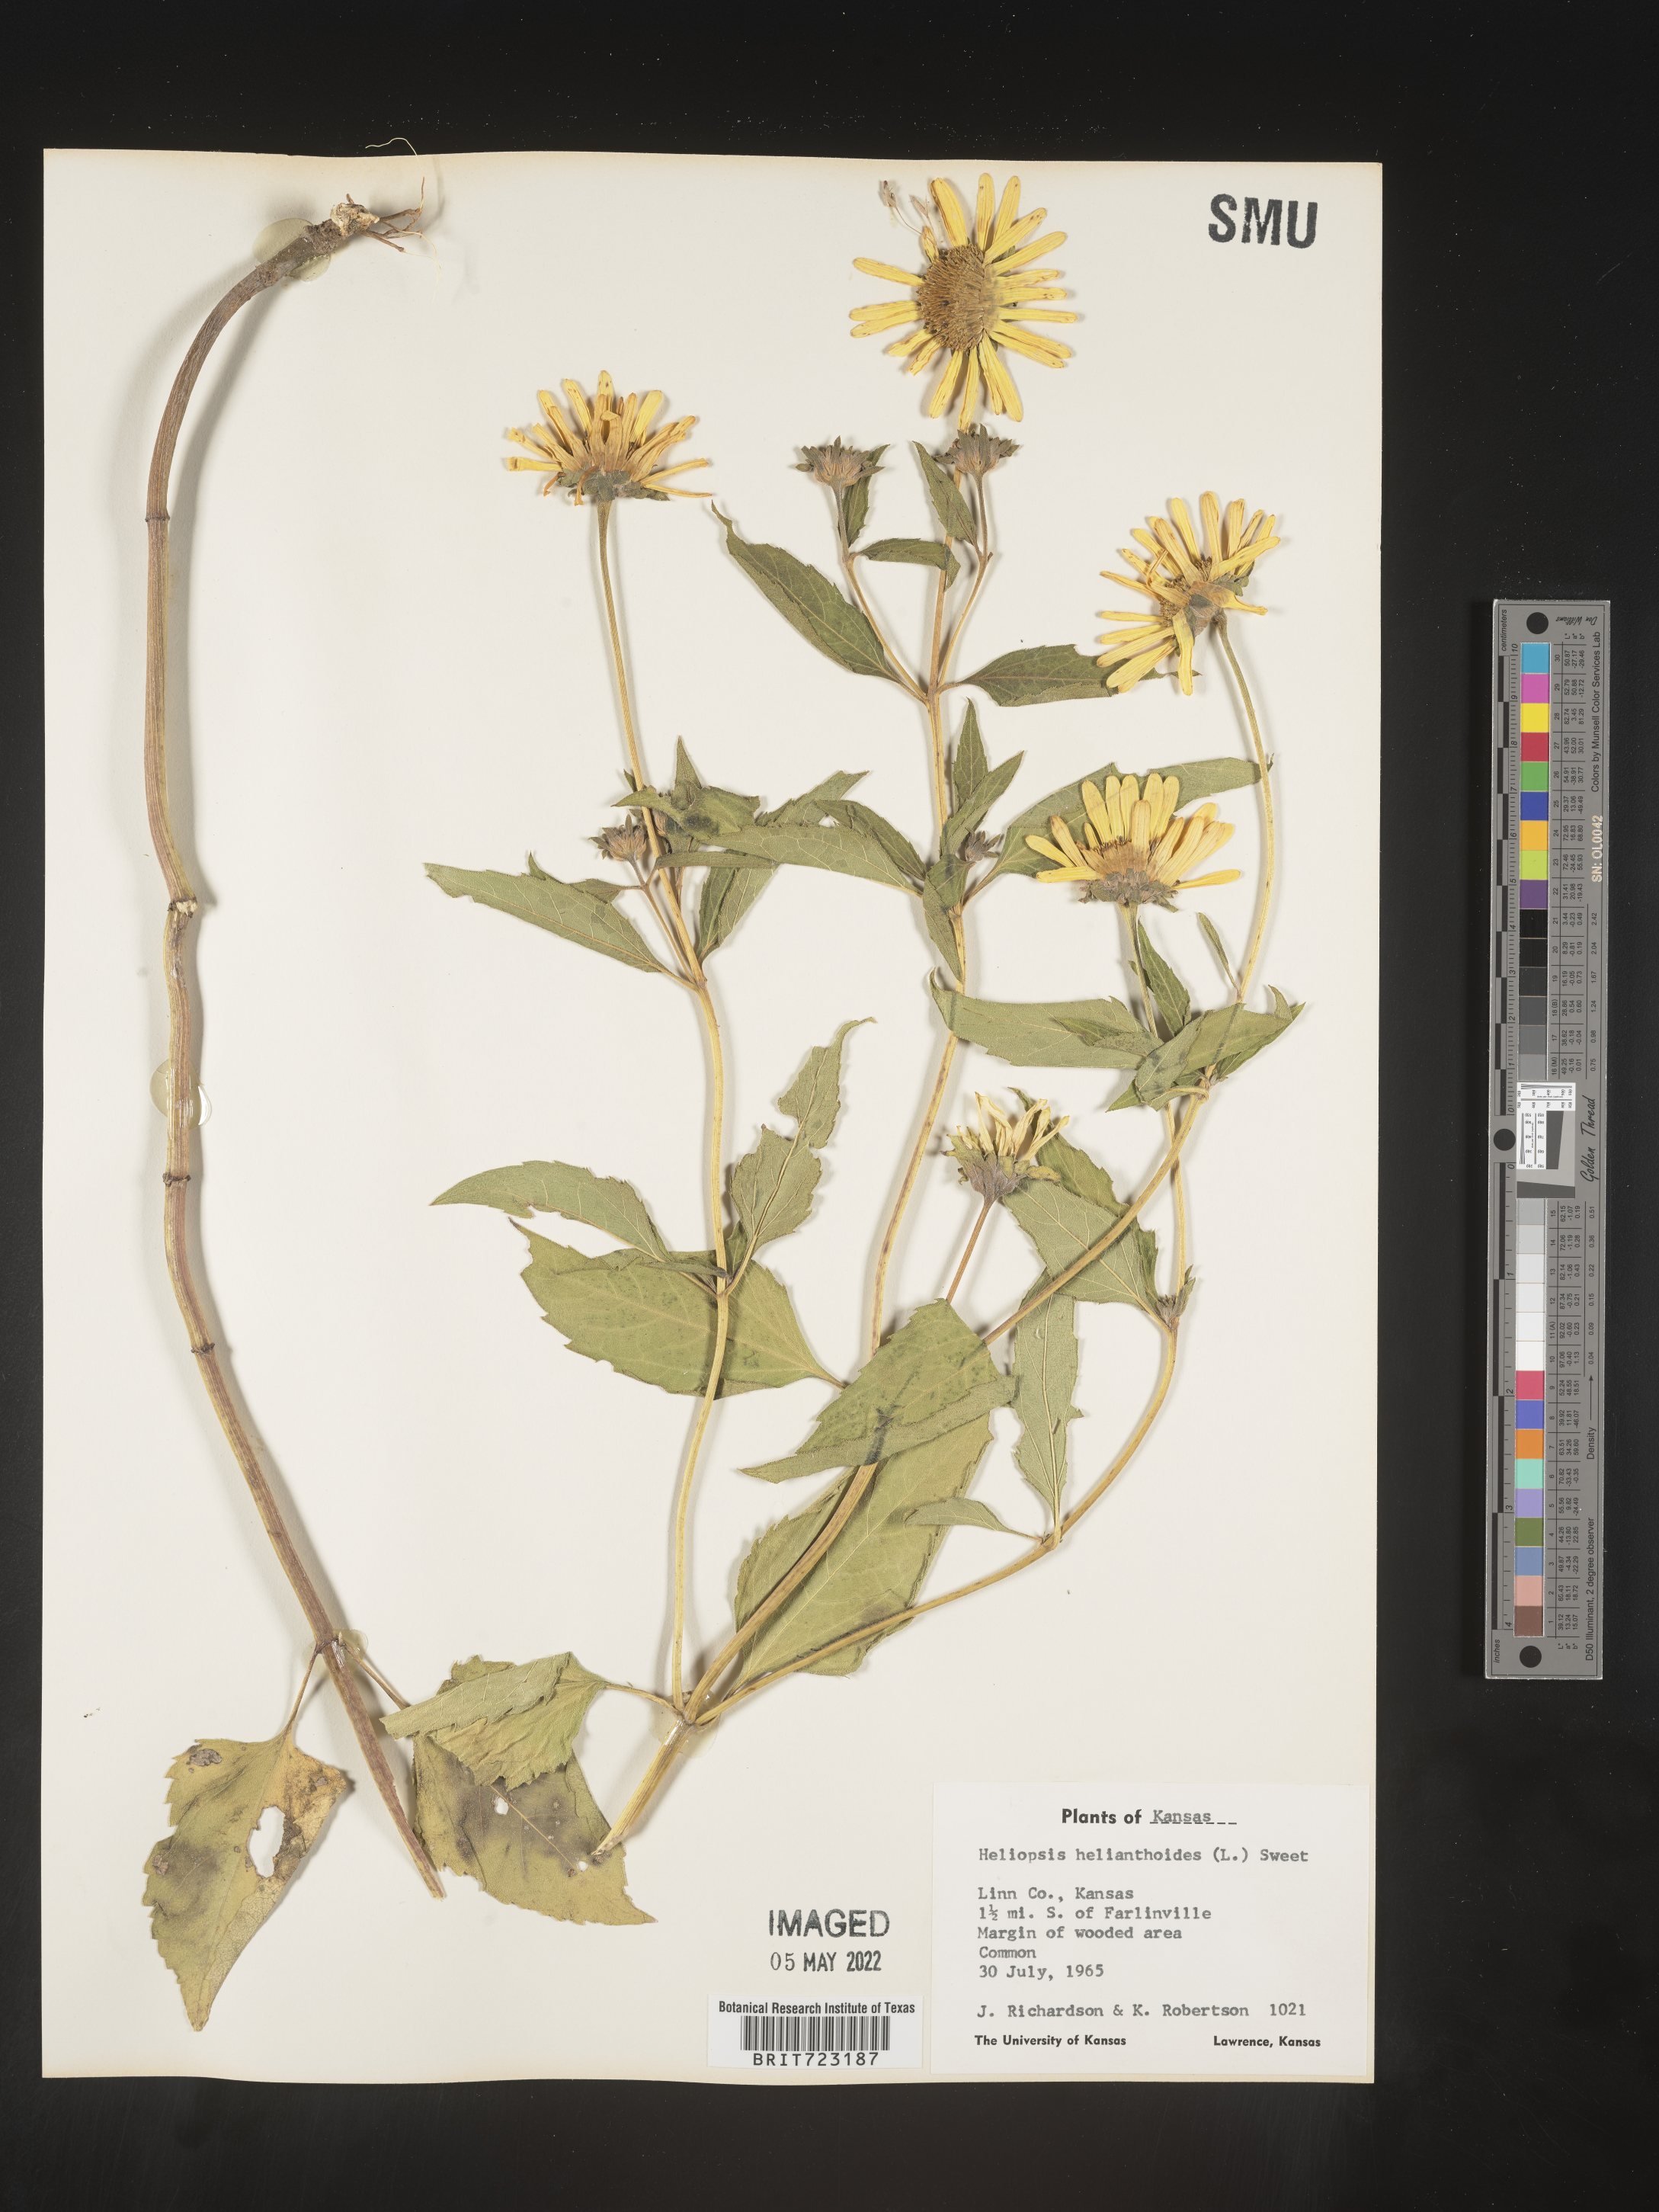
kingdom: Plantae
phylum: Tracheophyta
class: Magnoliopsida
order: Asterales
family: Asteraceae
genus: Heliopsis
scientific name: Heliopsis helianthoides
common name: False sunflower
